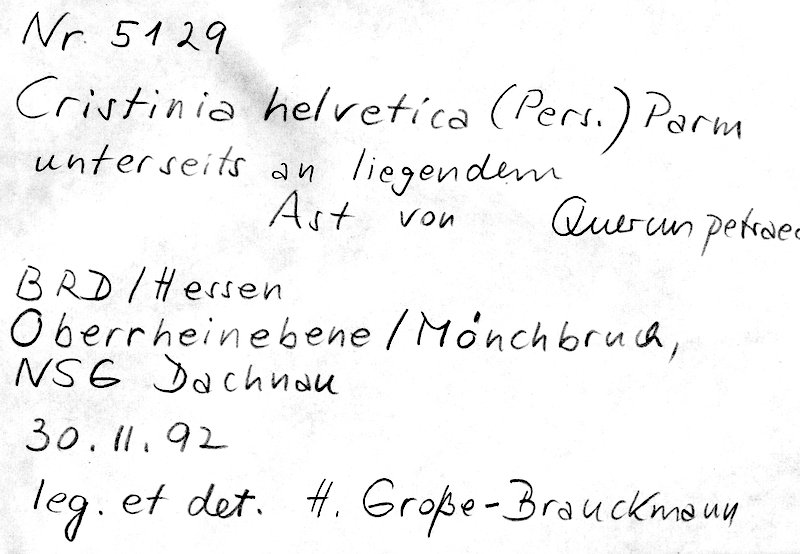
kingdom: Fungi
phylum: Basidiomycota
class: Agaricomycetes
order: Agaricales
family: Stephanosporaceae
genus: Cristinia
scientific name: Cristinia helvetica
